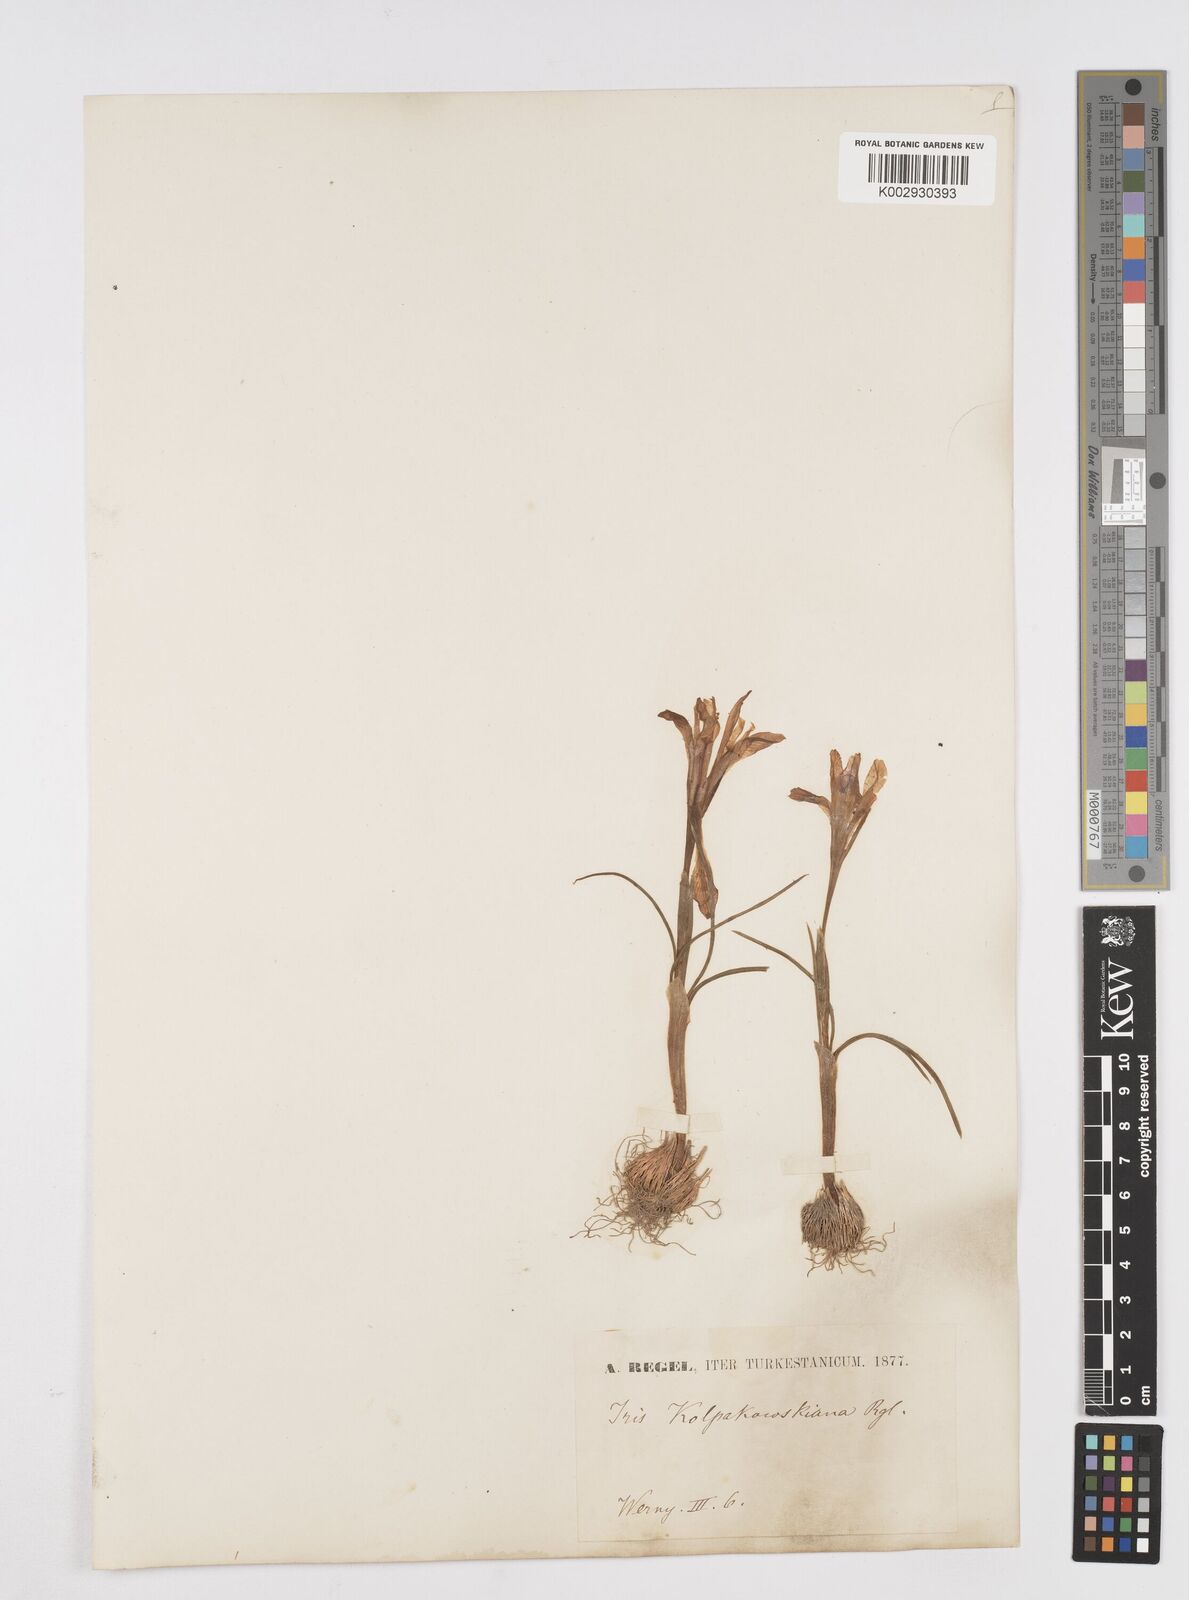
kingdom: Plantae
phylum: Tracheophyta
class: Liliopsida
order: Asparagales
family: Iridaceae
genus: Iris
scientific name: Iris kolpakowskiana
